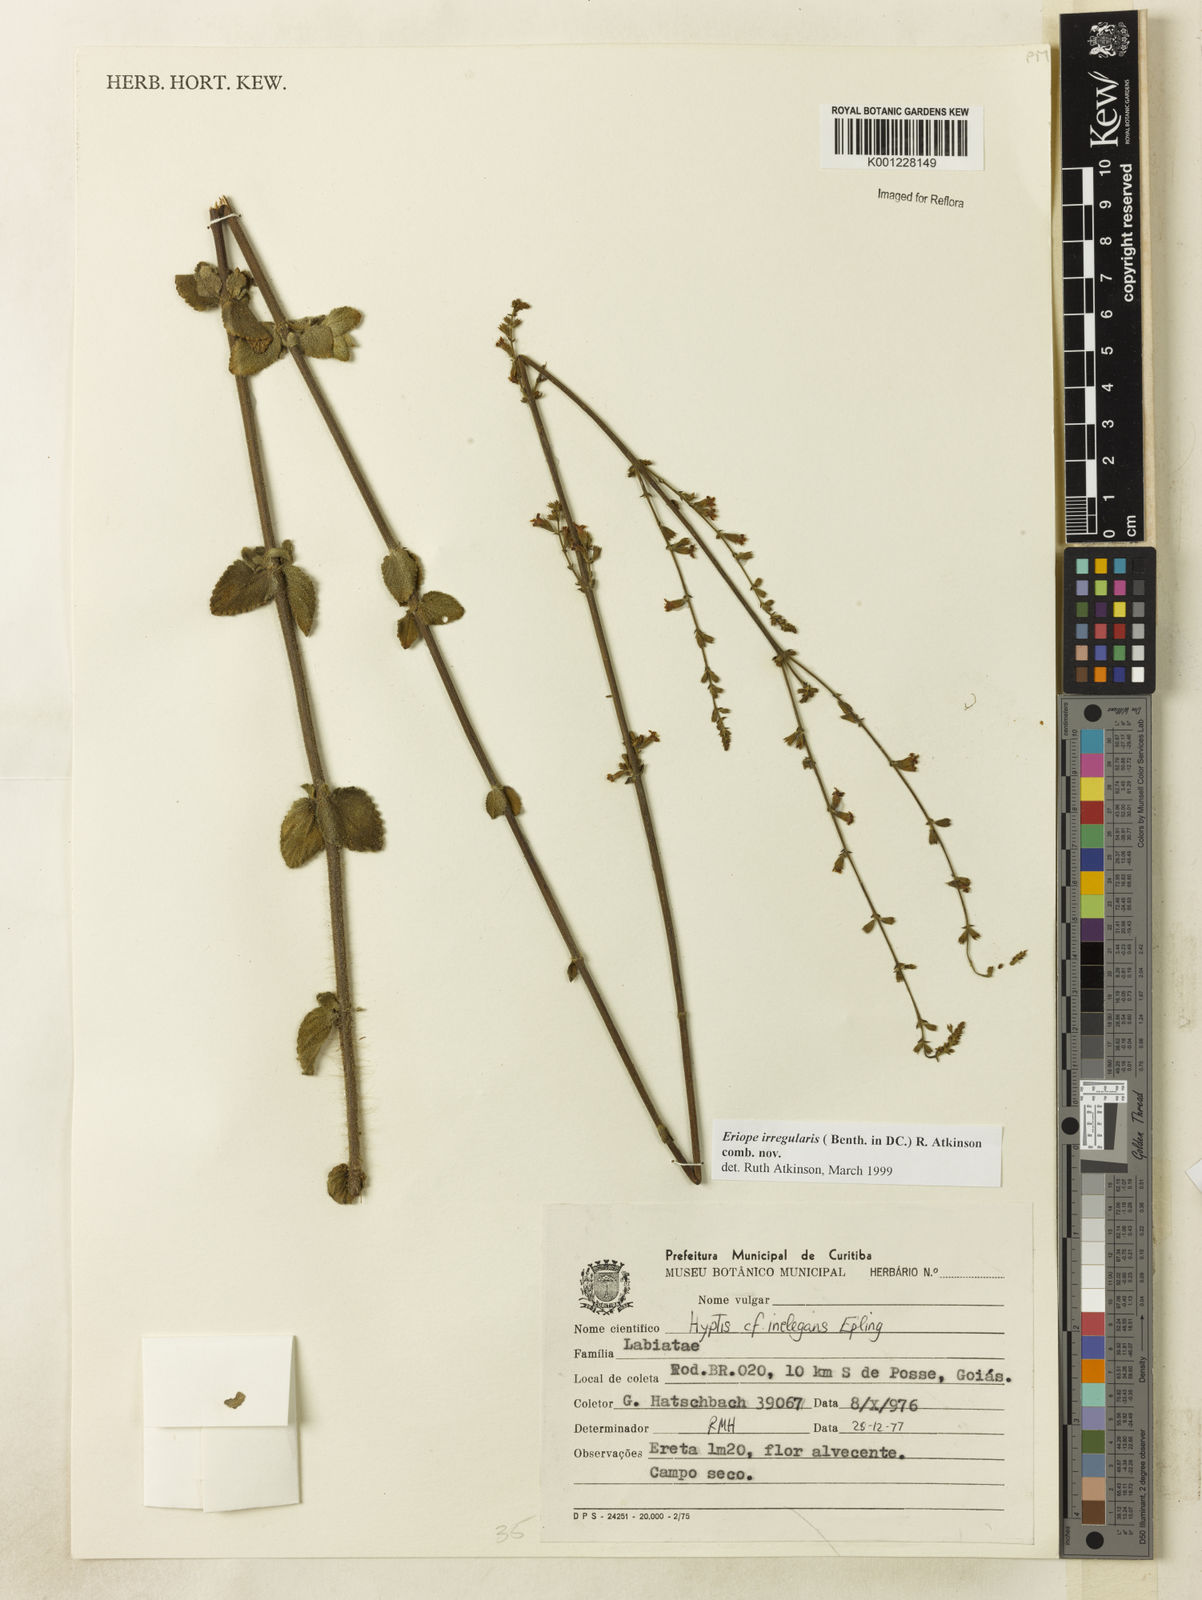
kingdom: Plantae
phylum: Tracheophyta
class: Magnoliopsida
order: Lamiales
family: Lamiaceae
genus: Hypenia
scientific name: Hypenia irregularis
